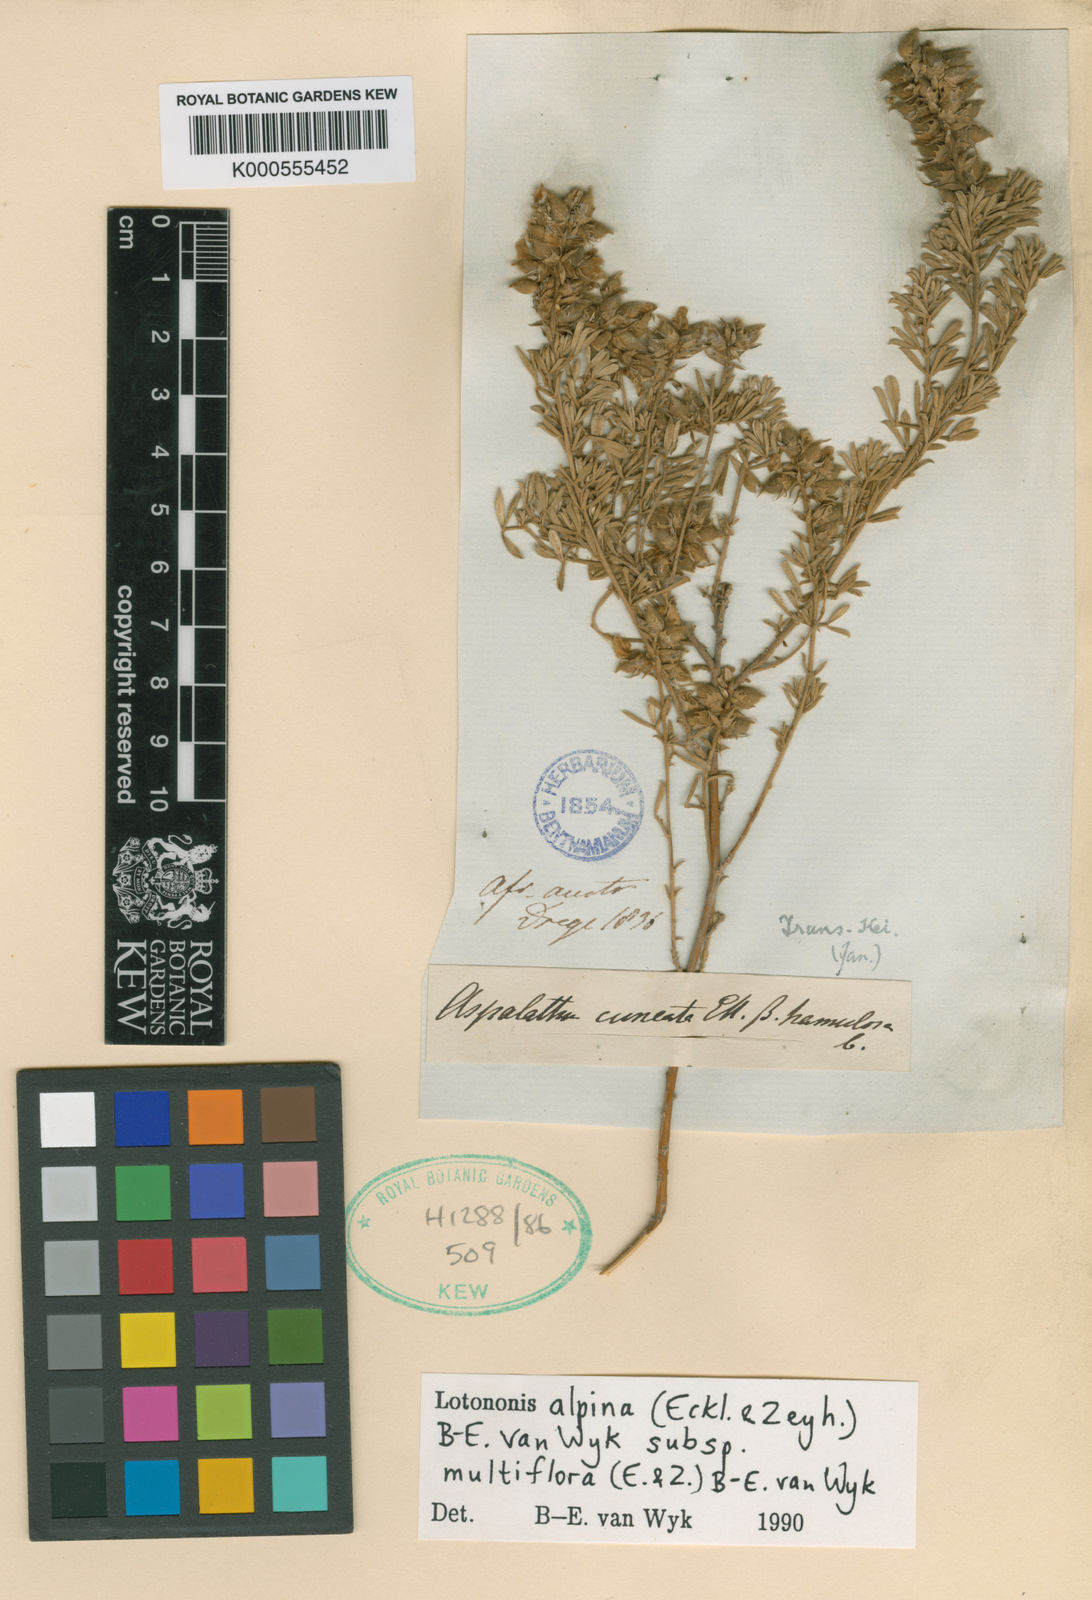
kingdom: Plantae
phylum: Tracheophyta
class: Magnoliopsida
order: Fabales
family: Fabaceae
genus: Lotononis
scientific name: Lotononis alpina
